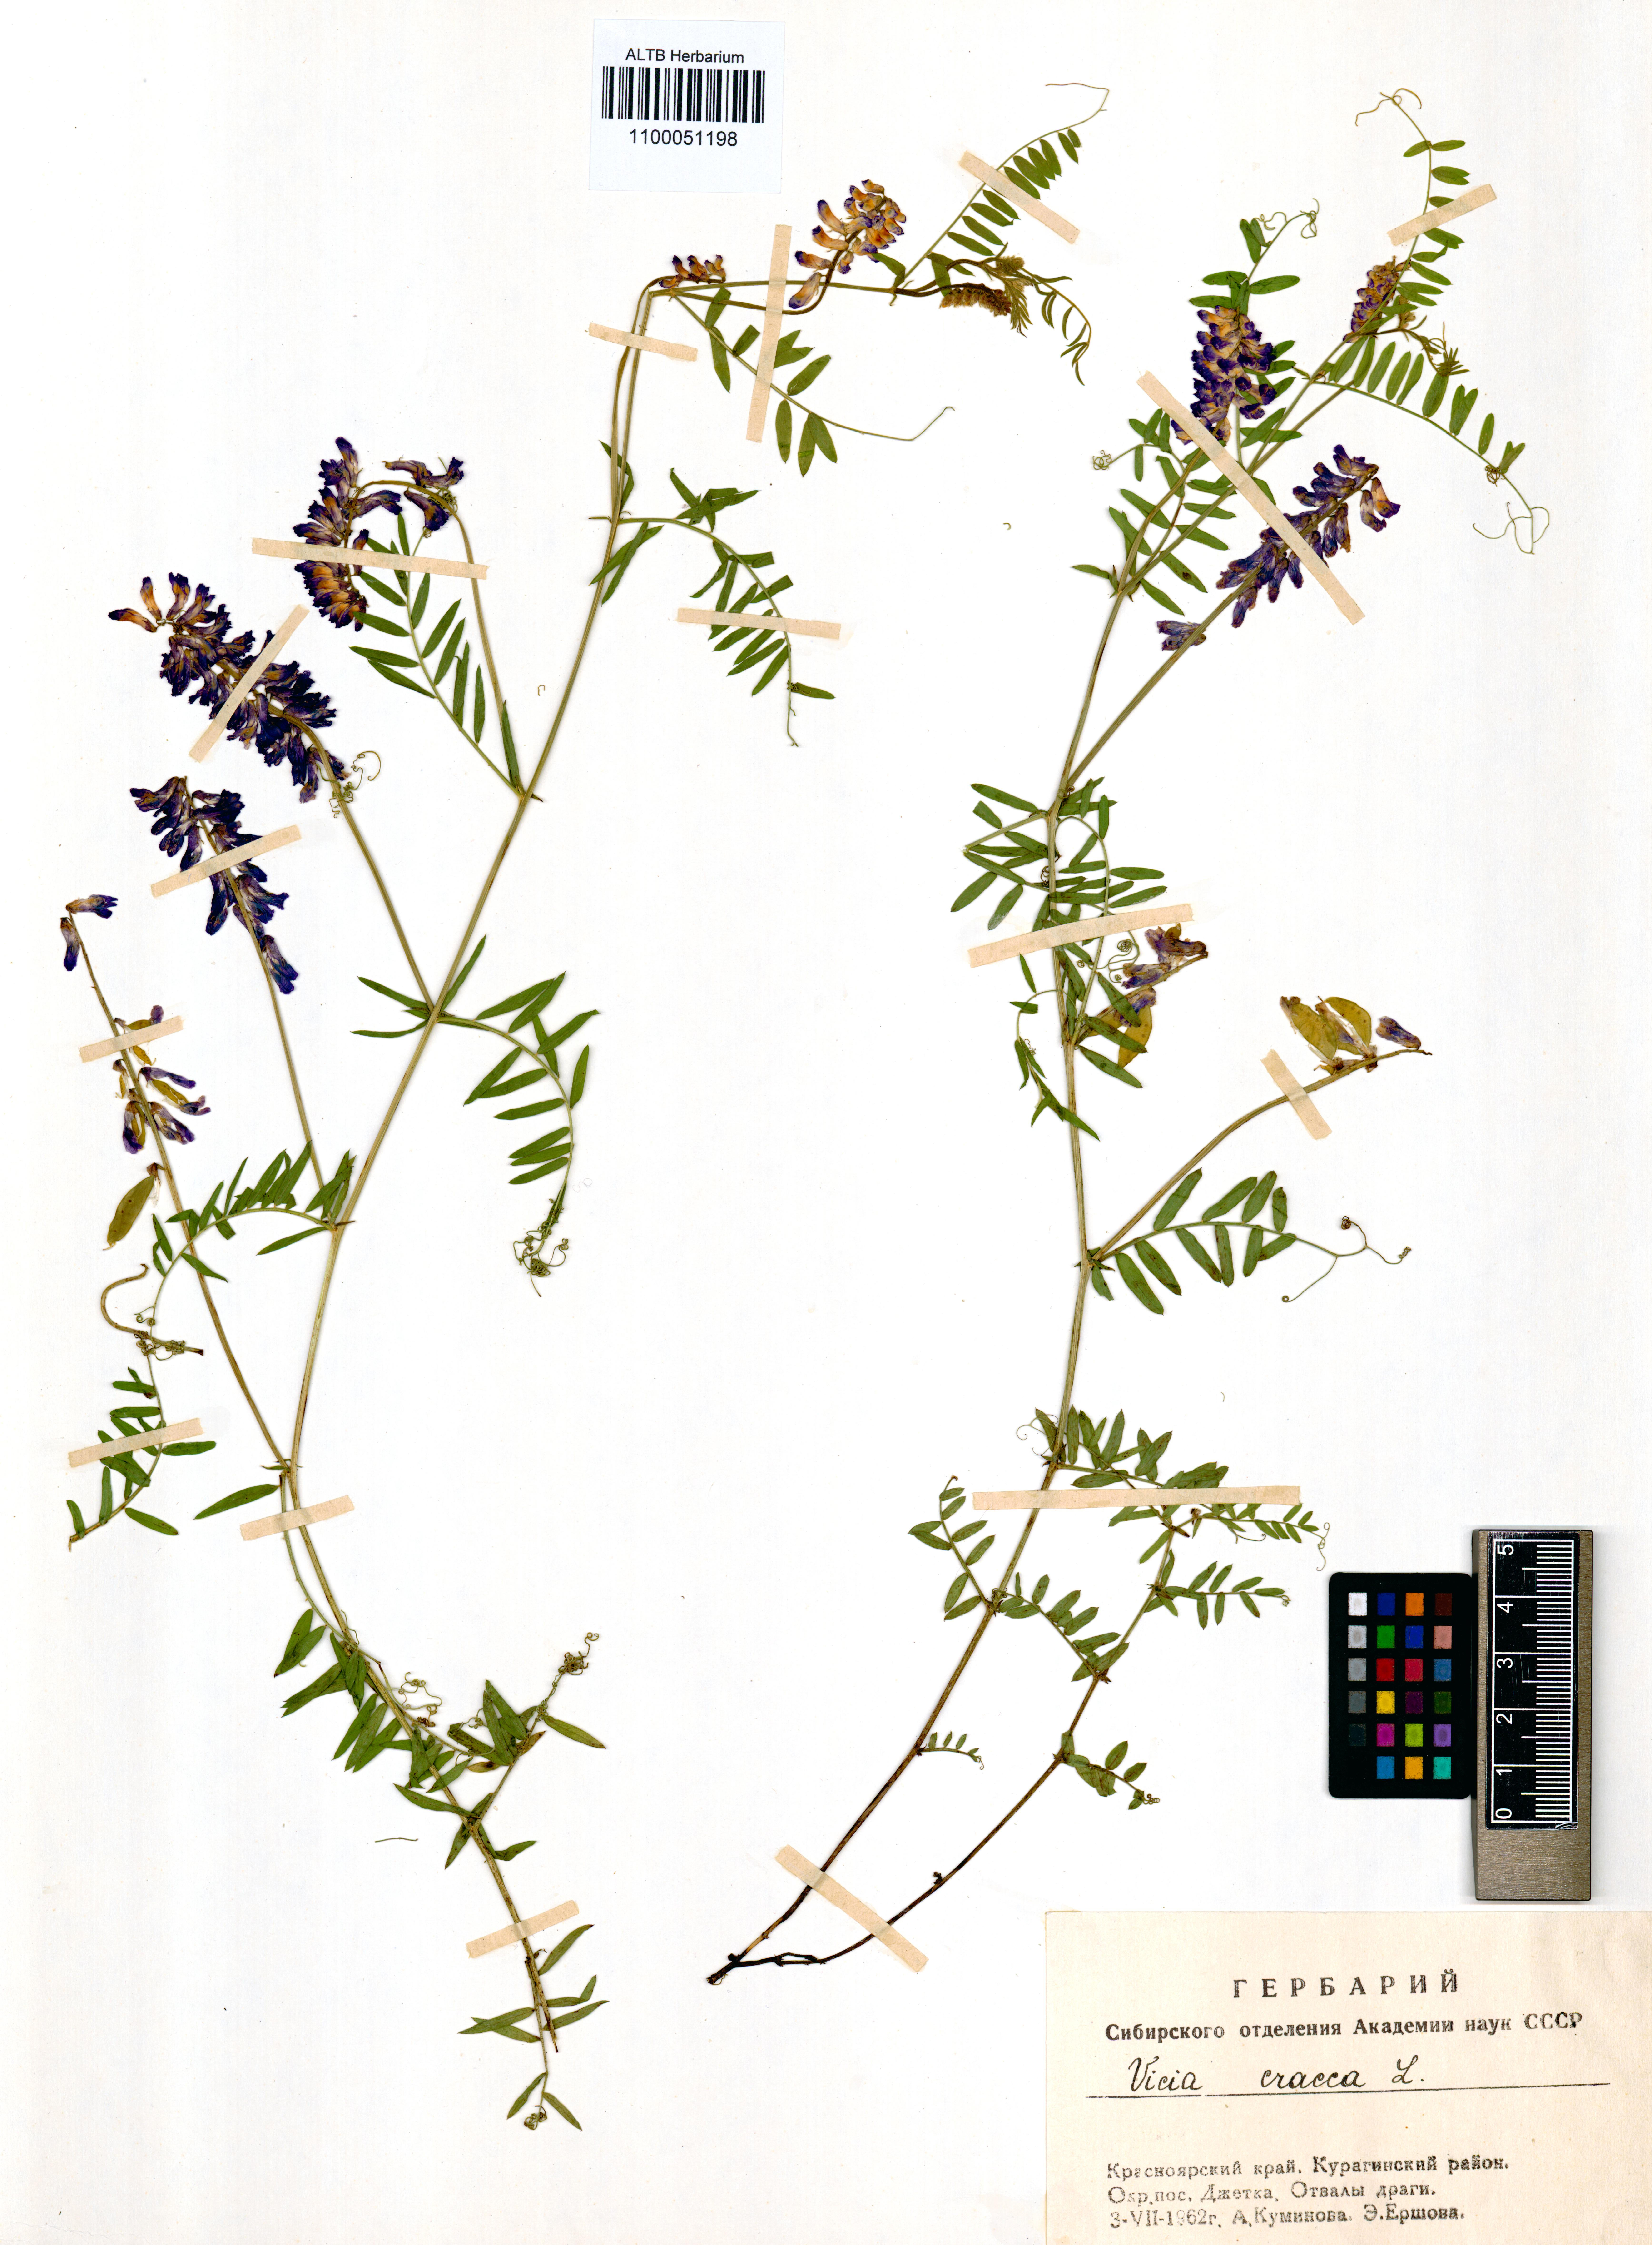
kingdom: Plantae
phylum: Tracheophyta
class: Magnoliopsida
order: Fabales
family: Fabaceae
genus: Vicia
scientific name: Vicia cracca
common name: Bird vetch
